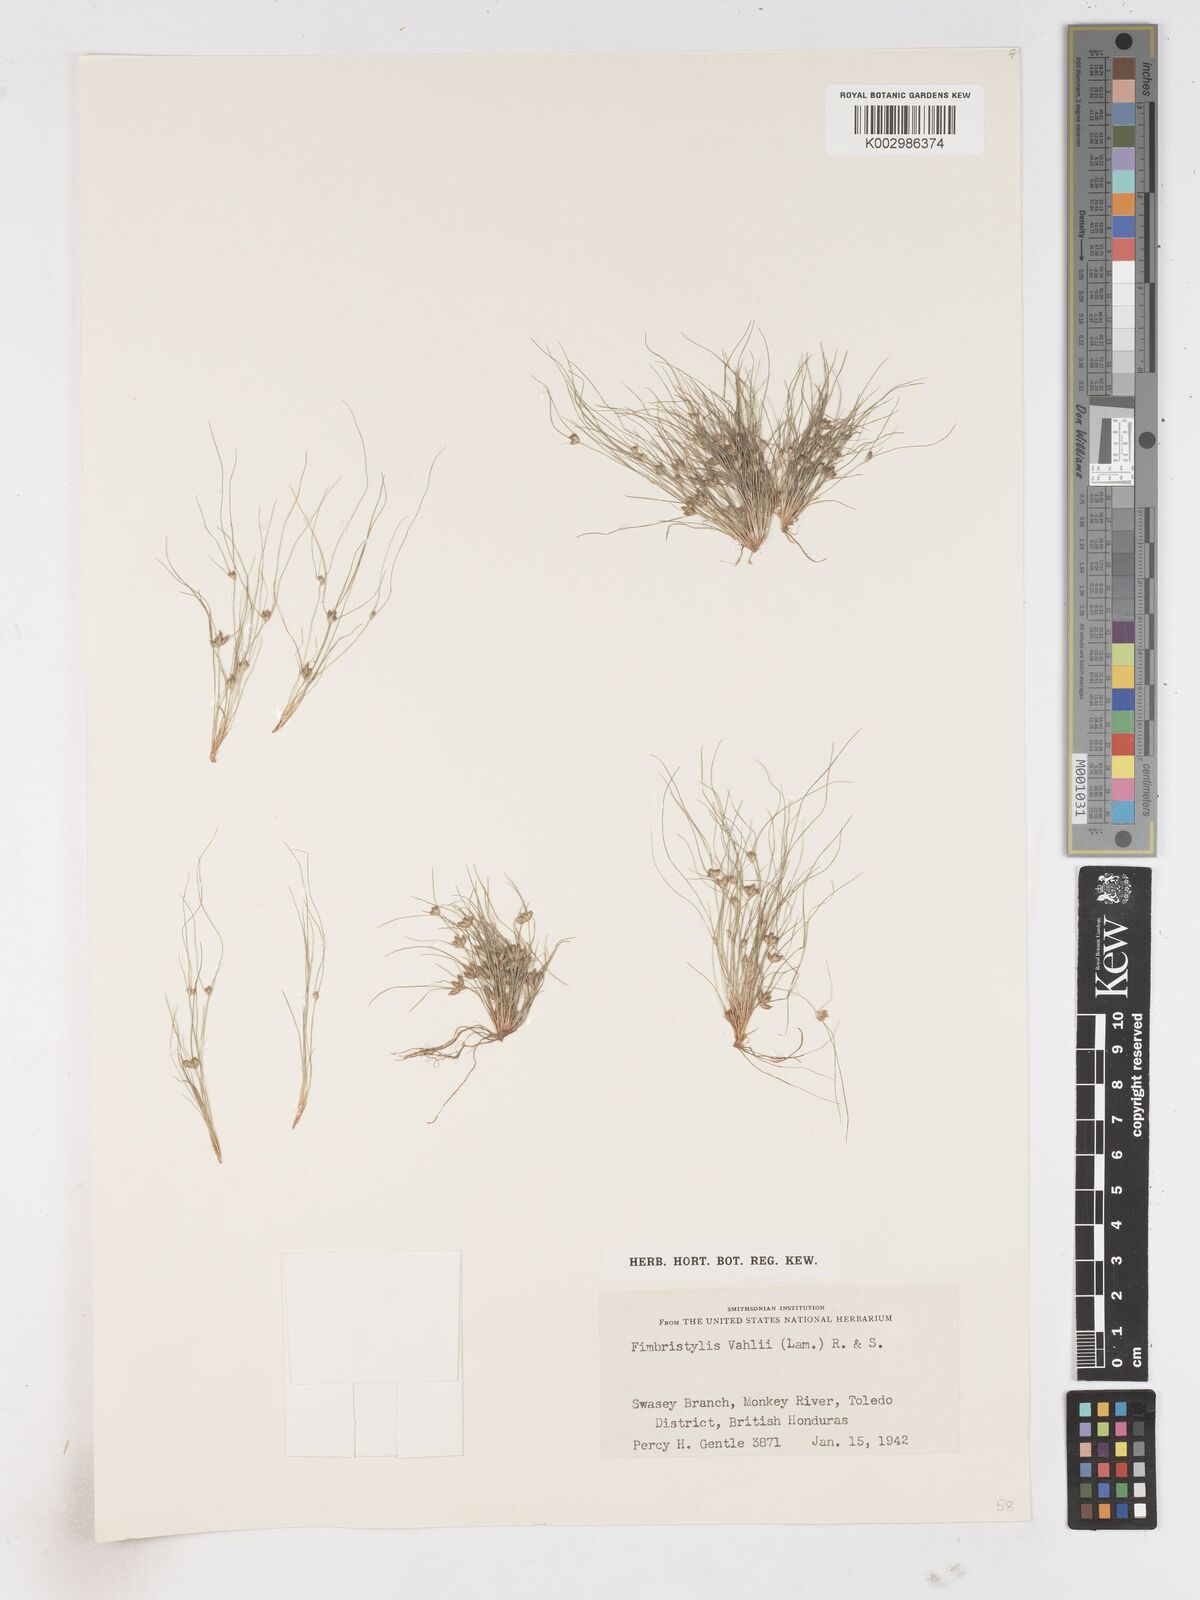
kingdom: Plantae
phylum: Tracheophyta
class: Liliopsida
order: Poales
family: Cyperaceae
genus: Fimbristylis
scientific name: Fimbristylis vahlii
